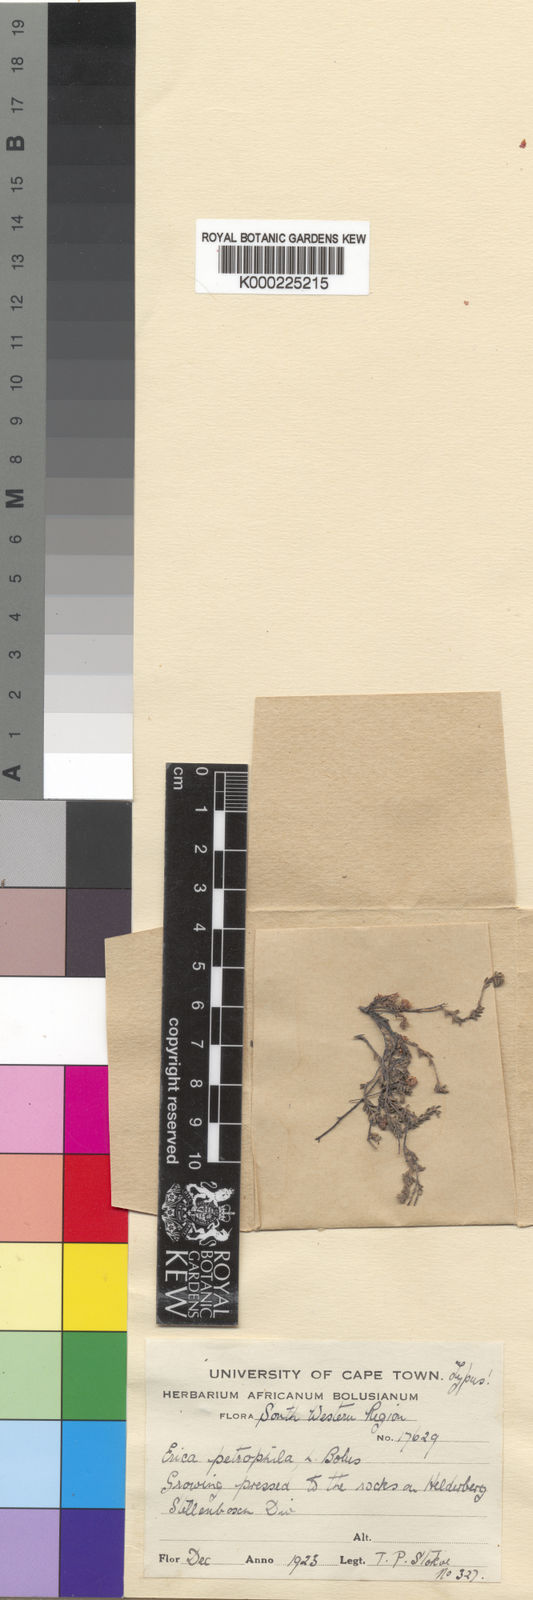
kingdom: Plantae
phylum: Tracheophyta
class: Magnoliopsida
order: Ericales
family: Ericaceae
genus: Erica
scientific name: Erica petrophila
